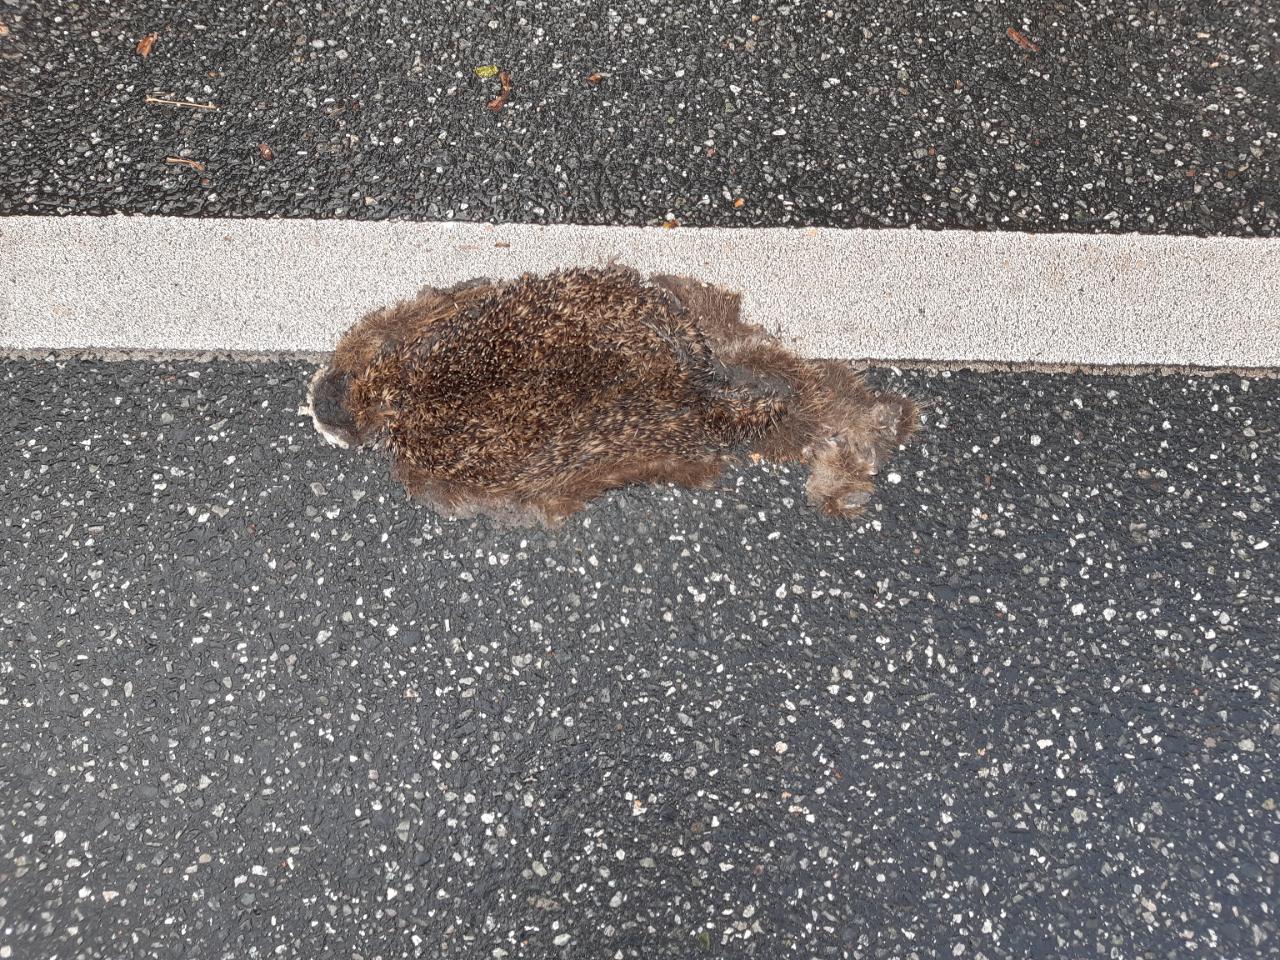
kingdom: Animalia
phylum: Chordata
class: Mammalia
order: Erinaceomorpha
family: Erinaceidae
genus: Erinaceus
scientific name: Erinaceus
